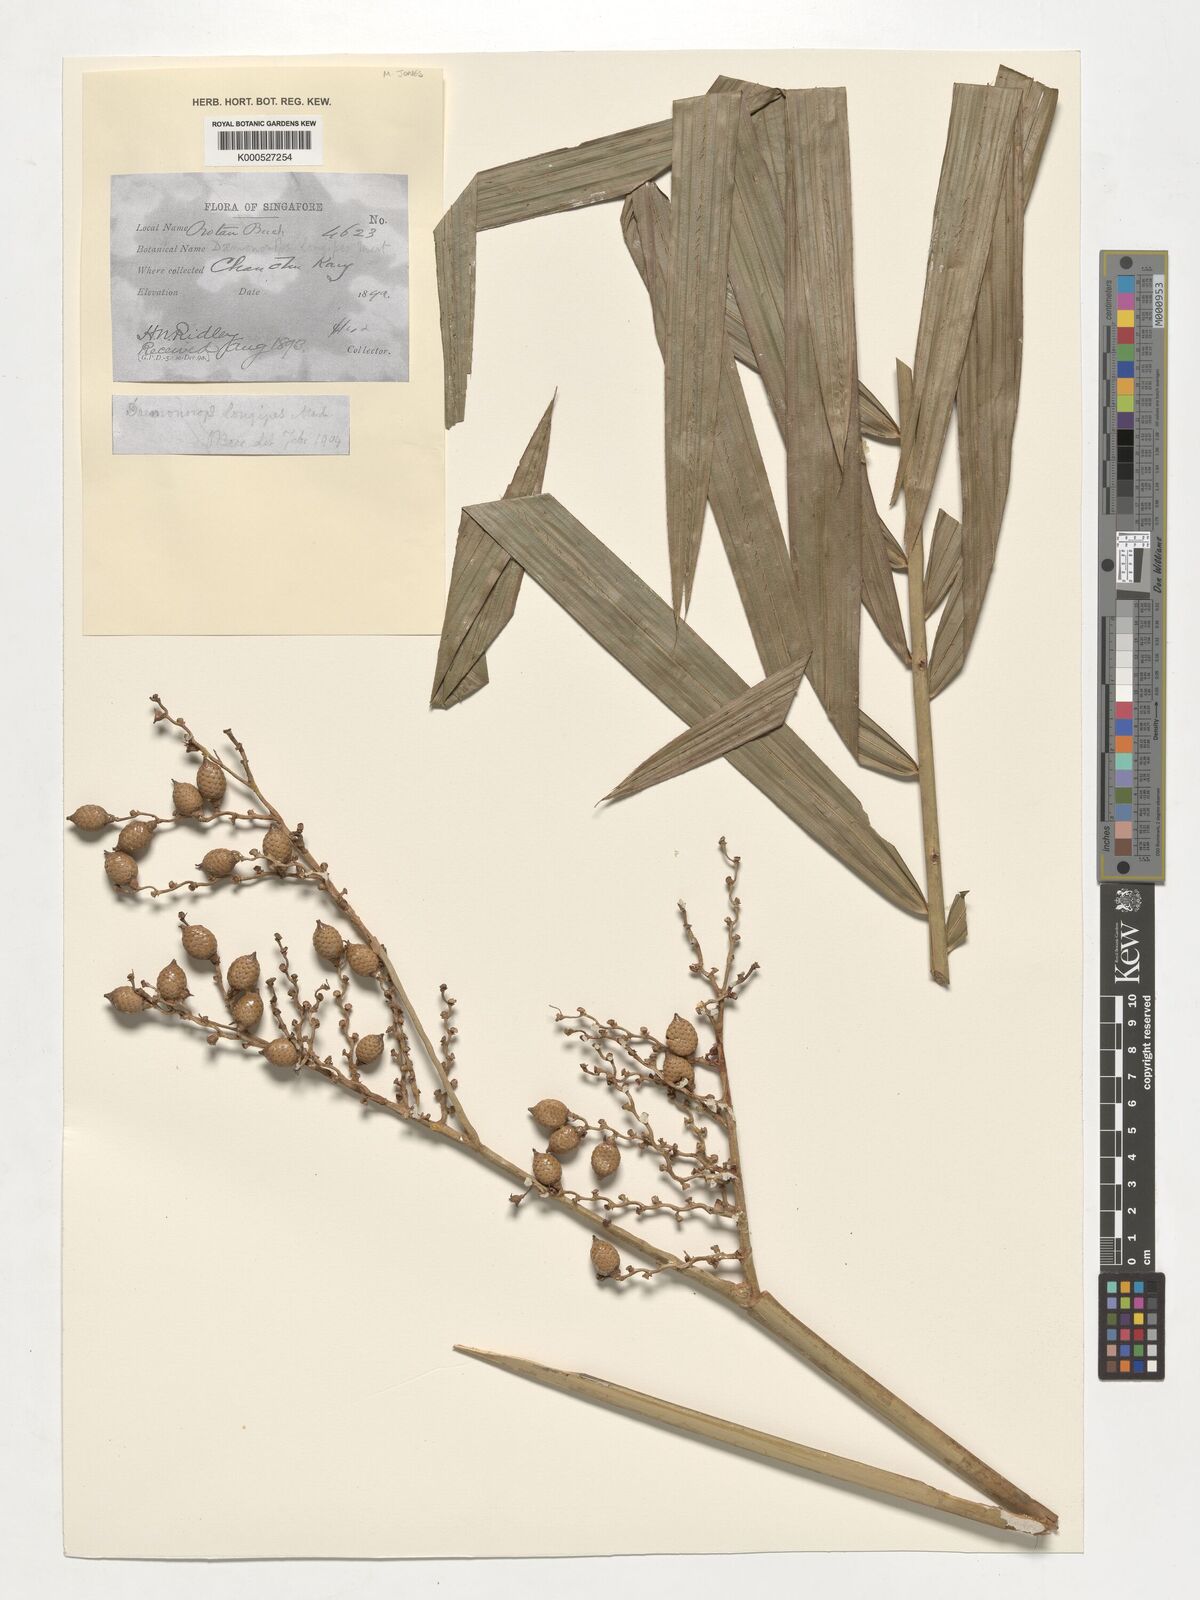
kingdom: Plantae
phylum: Tracheophyta
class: Liliopsida
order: Arecales
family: Arecaceae
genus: Calamus
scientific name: Calamus longipes
